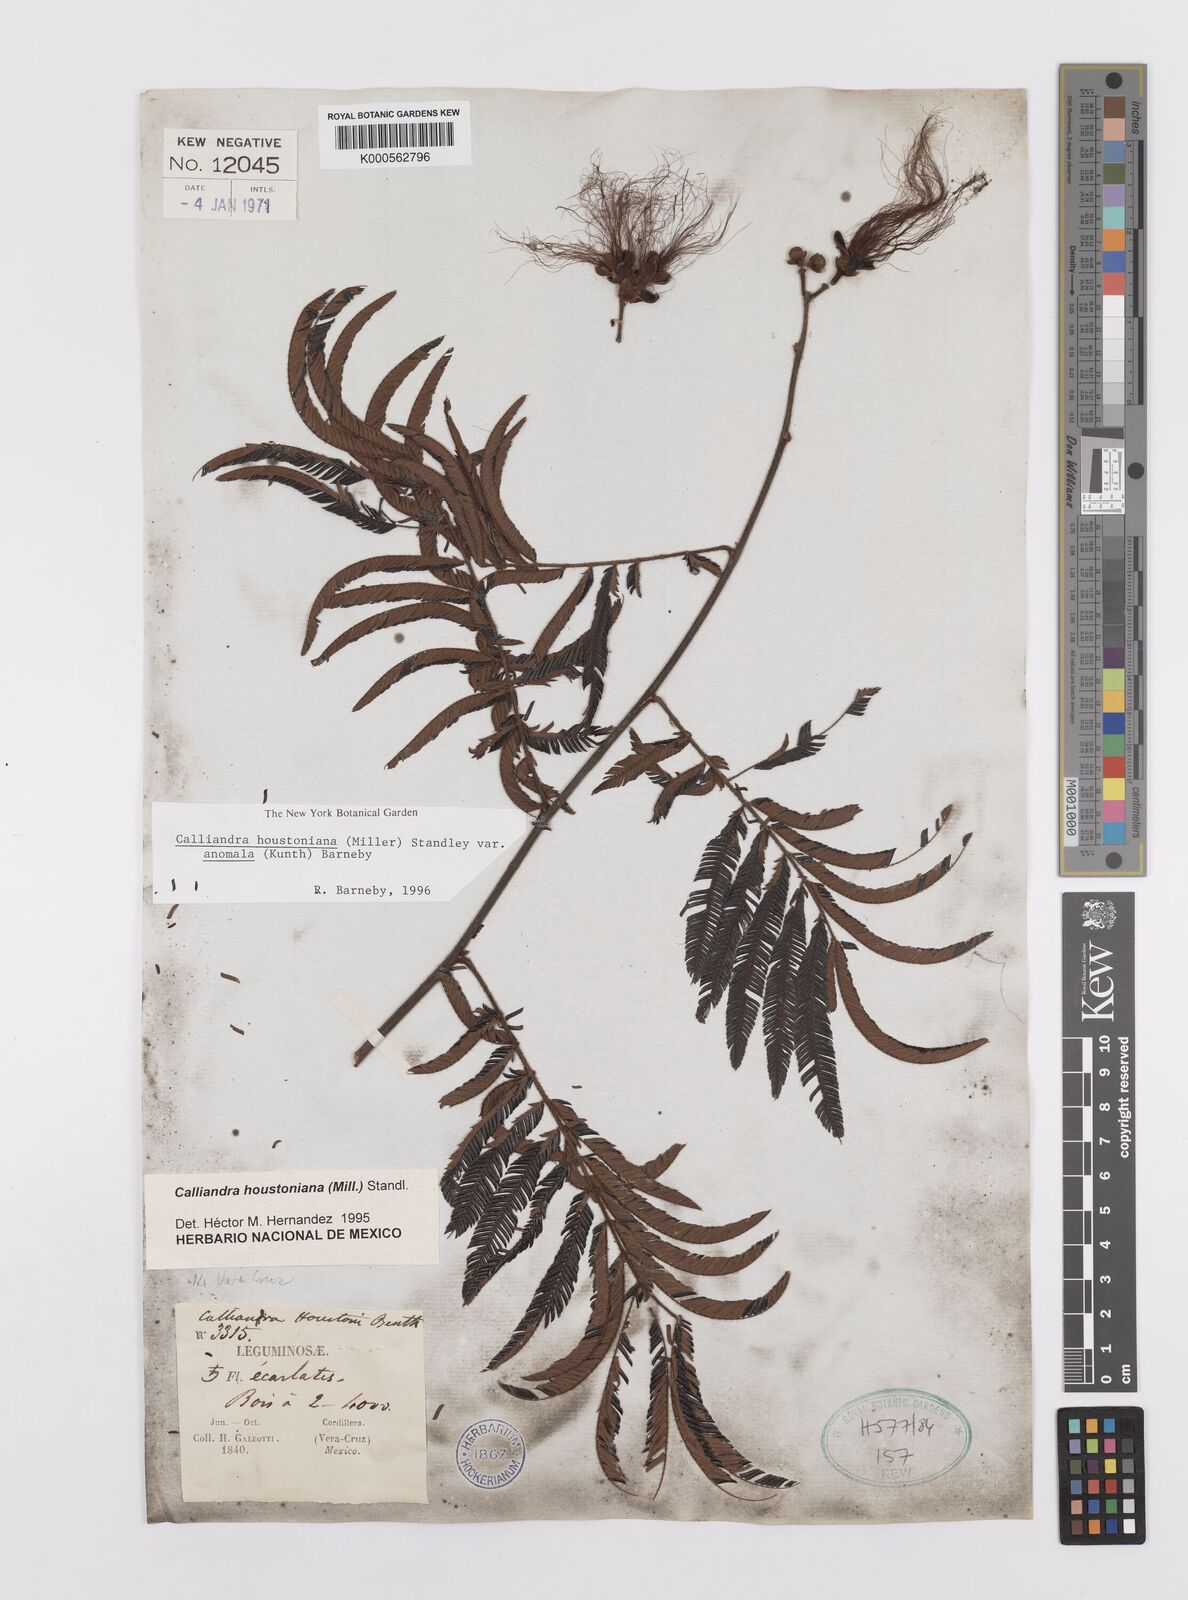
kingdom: Plantae
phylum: Tracheophyta
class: Magnoliopsida
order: Fabales
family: Fabaceae
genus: Calliandra
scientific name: Calliandra houstoniana
